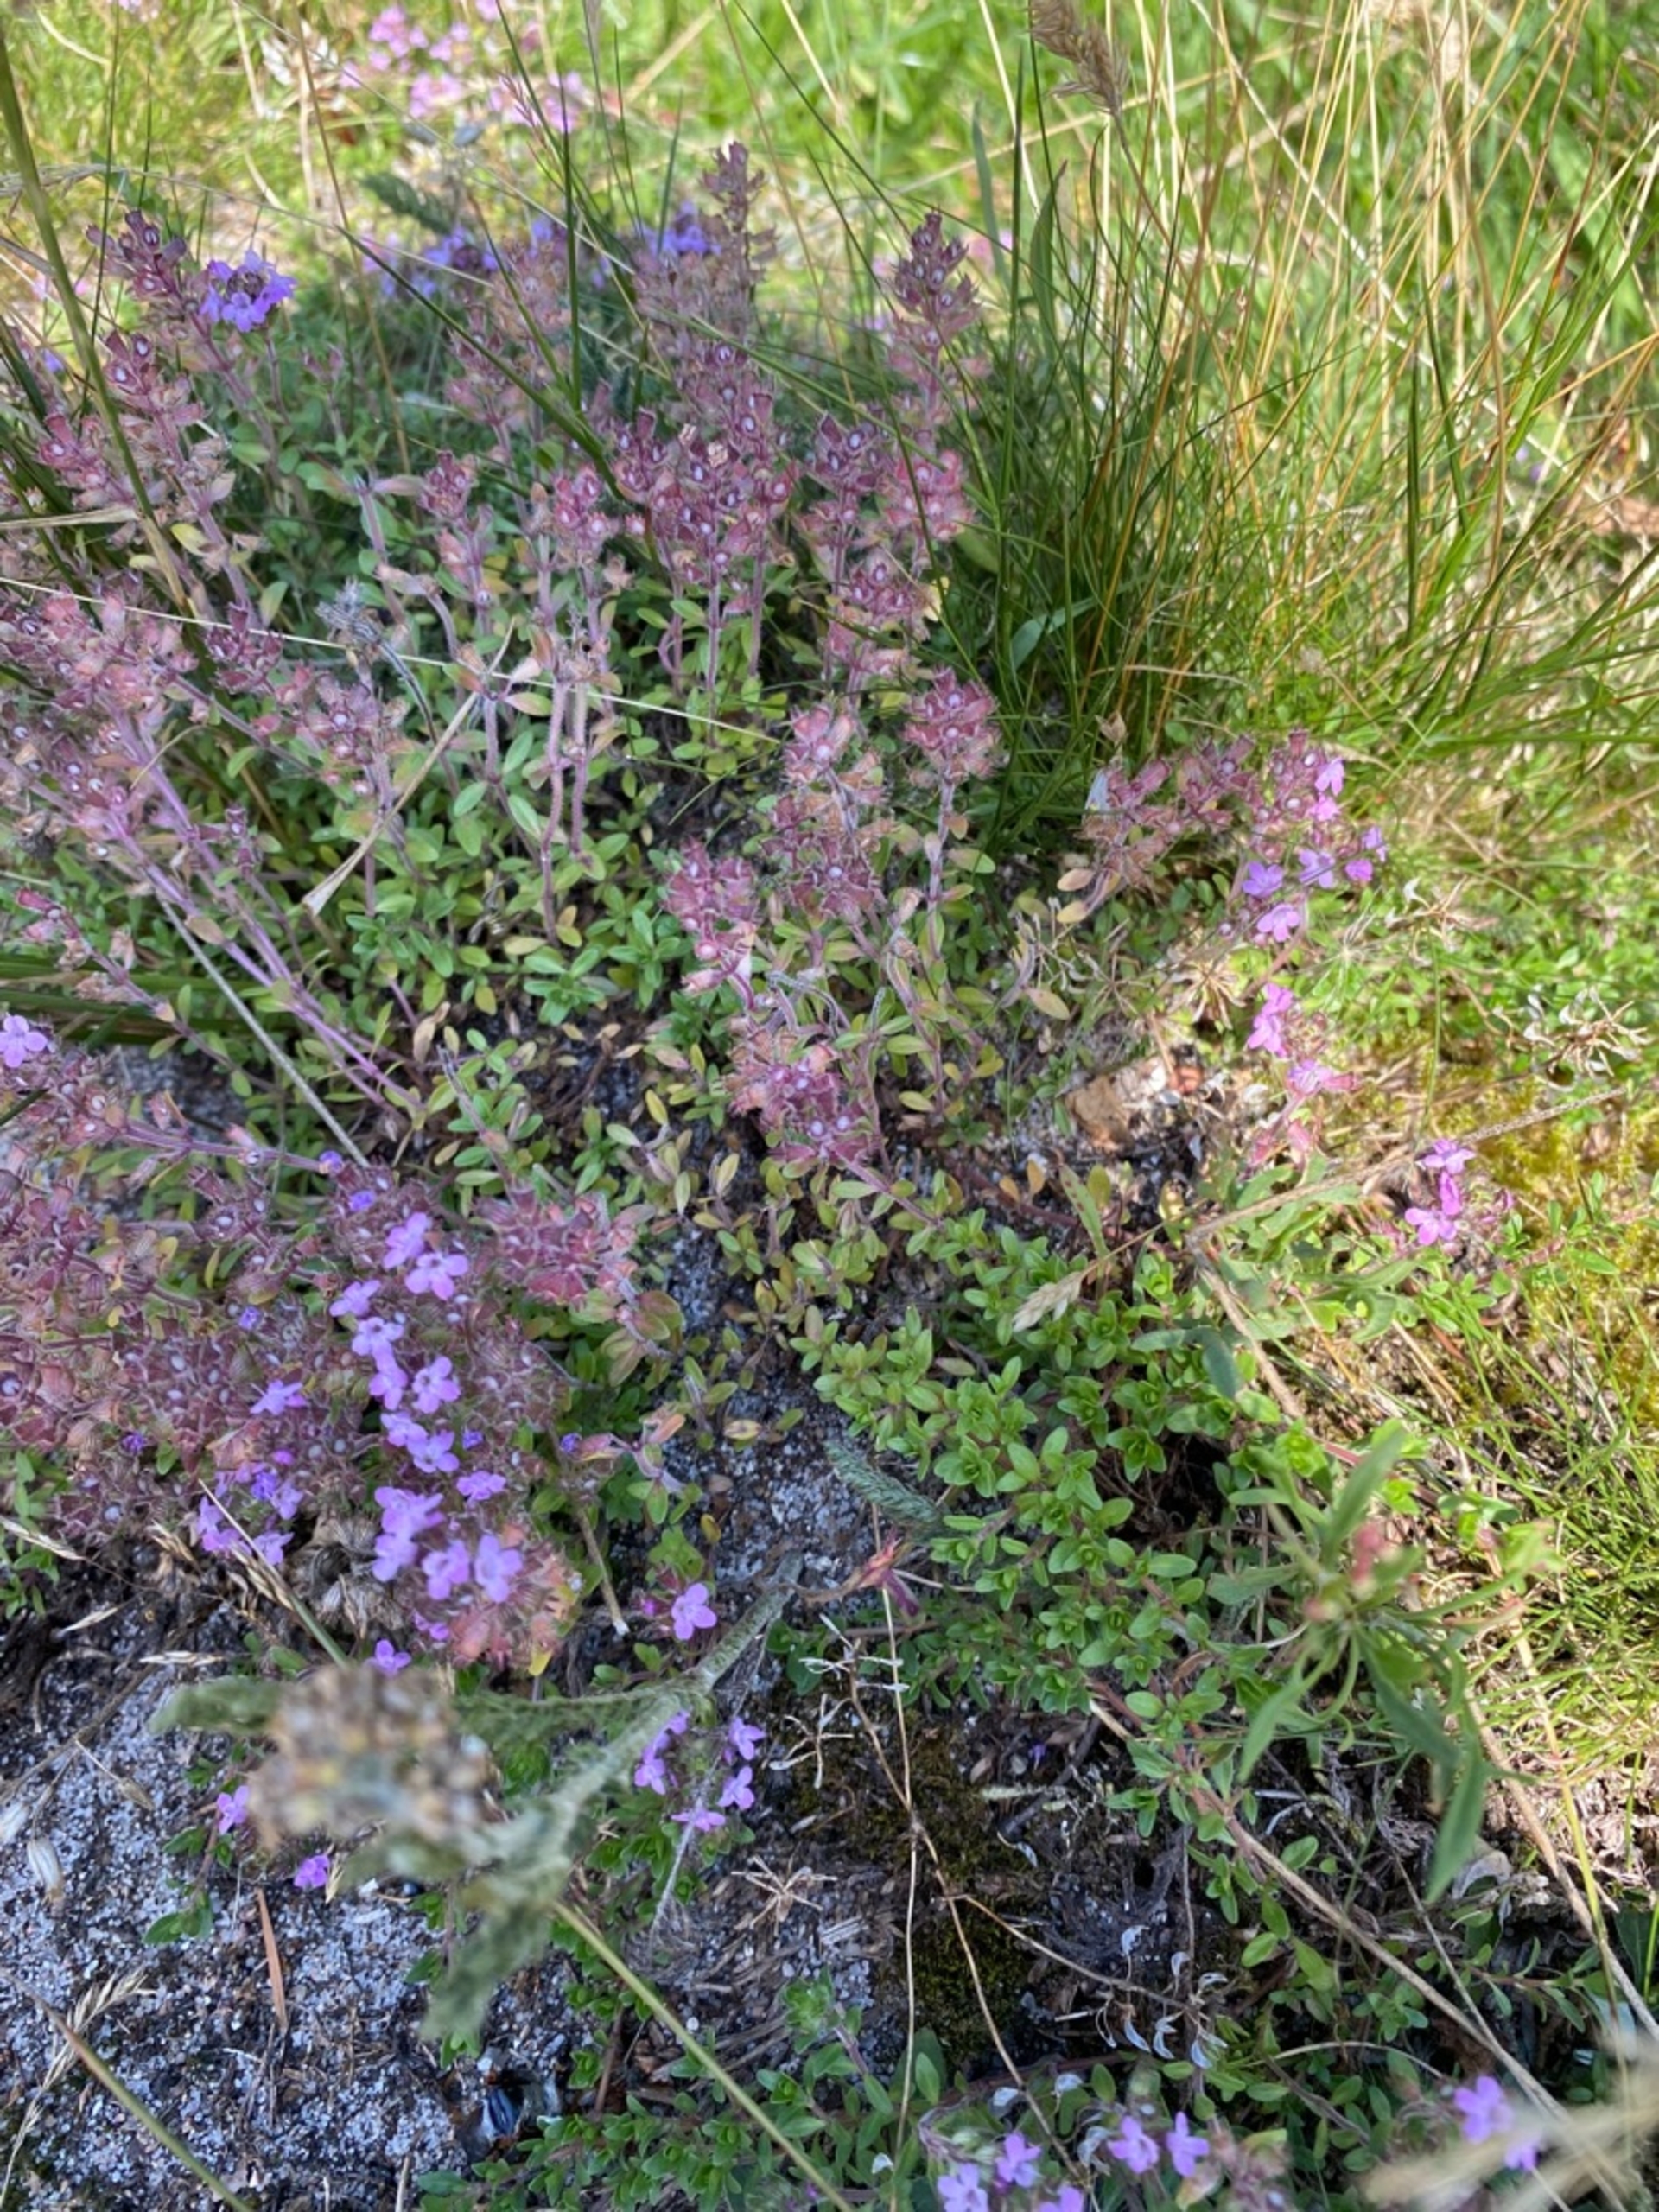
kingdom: Plantae
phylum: Tracheophyta
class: Magnoliopsida
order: Lamiales
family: Lamiaceae
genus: Thymus
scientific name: Thymus serpyllum
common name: Smalbladet timian
